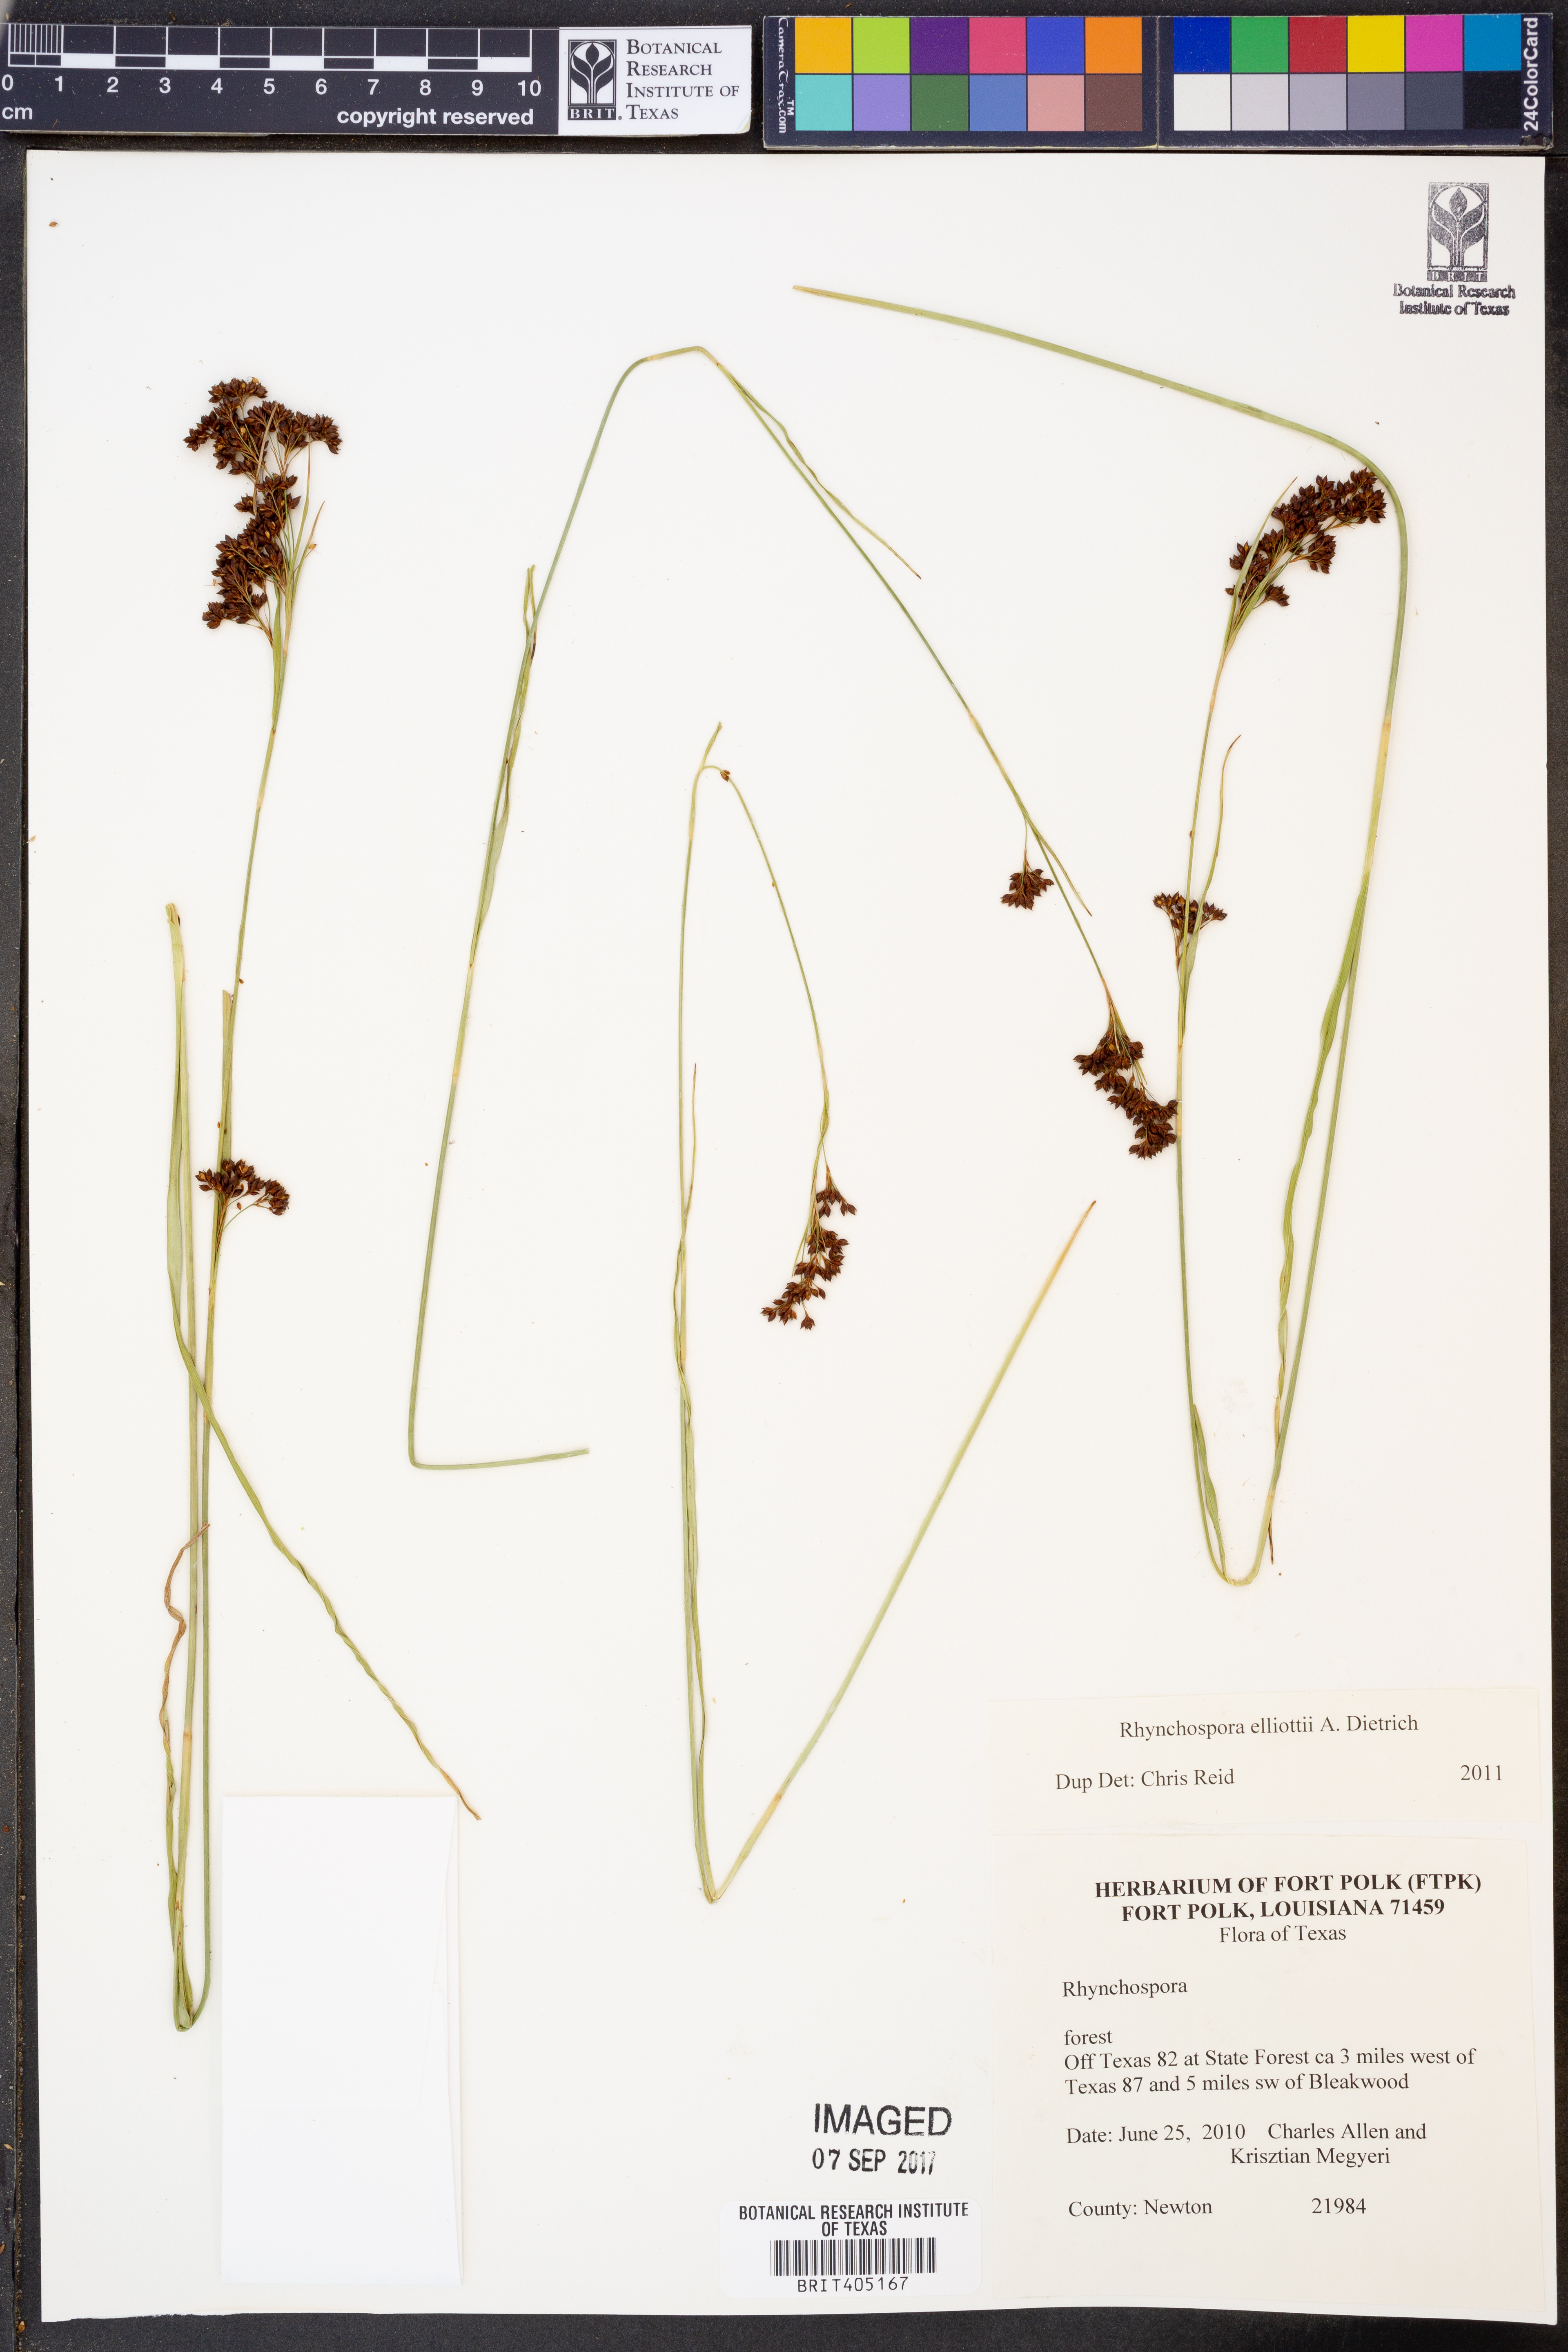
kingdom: Plantae
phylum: Tracheophyta
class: Liliopsida
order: Poales
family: Cyperaceae
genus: Rhynchospora
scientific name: Rhynchospora elliottii
